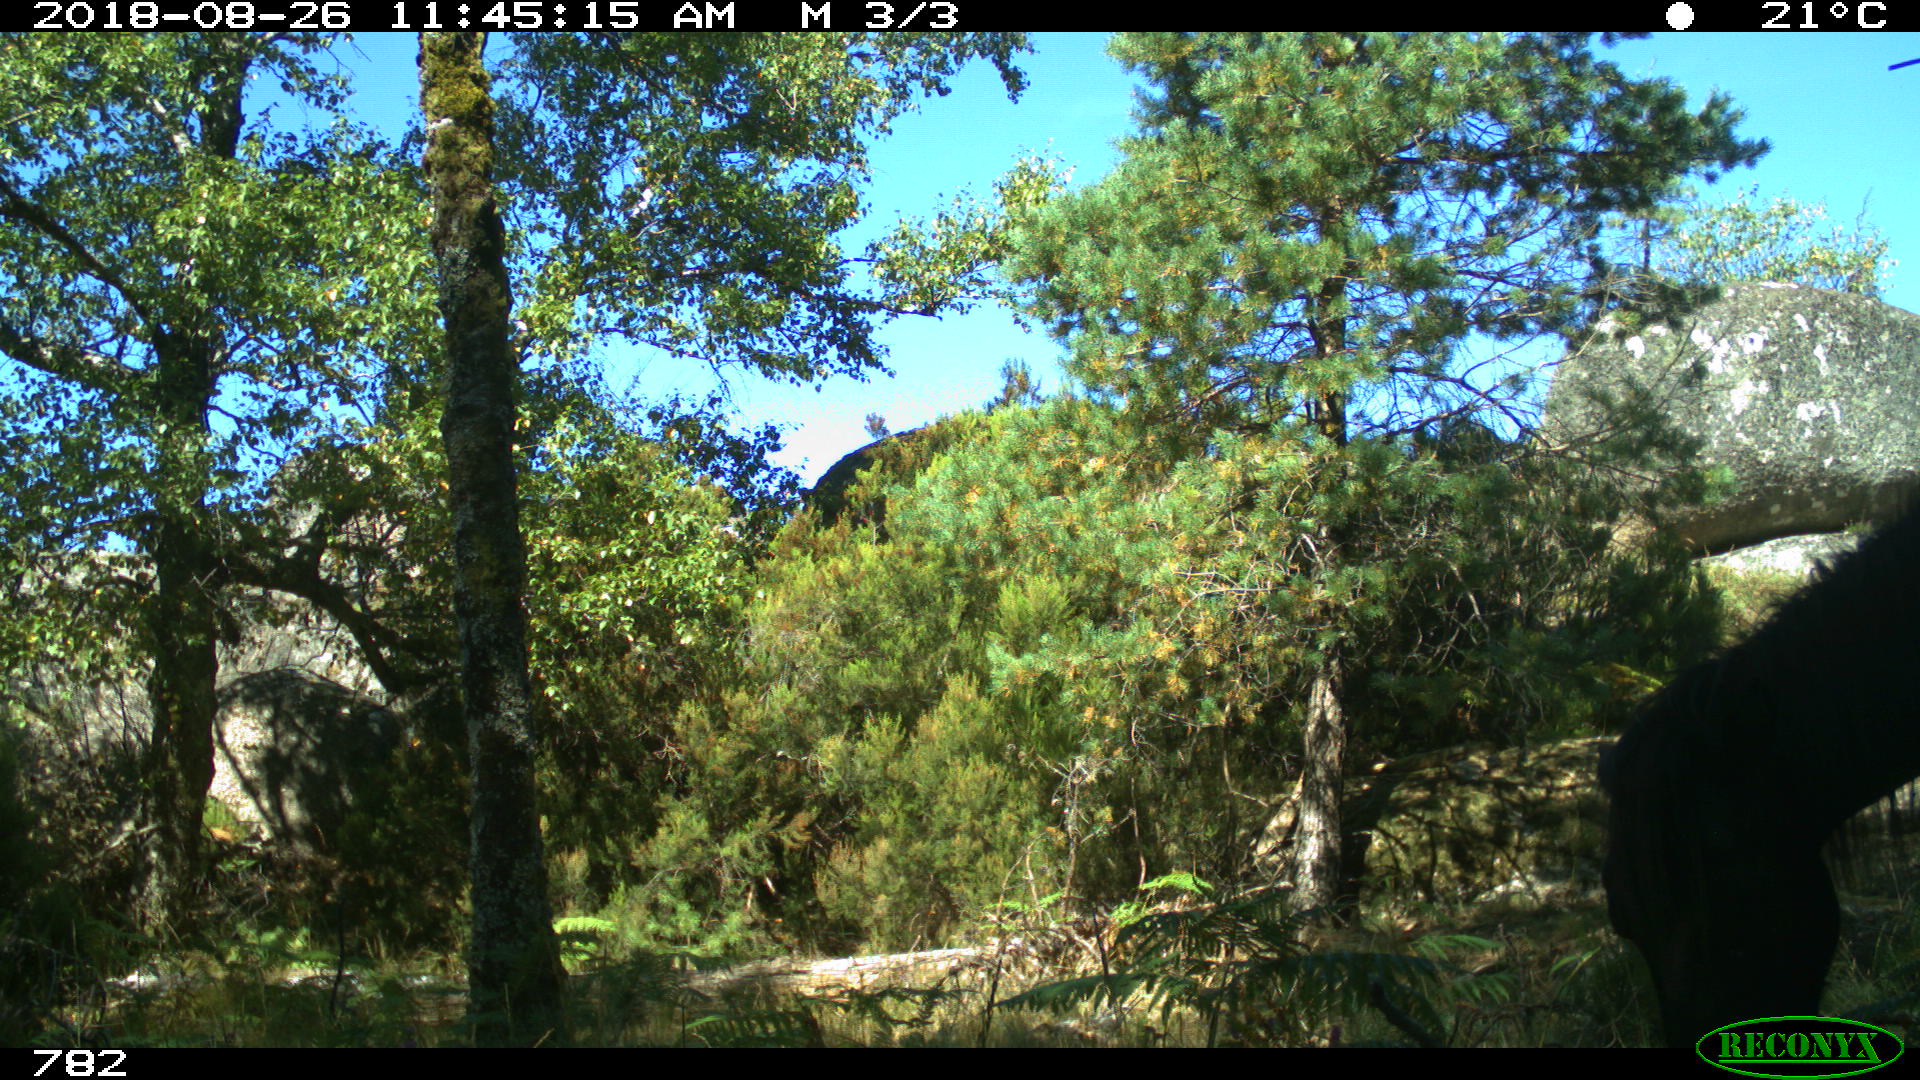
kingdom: Animalia
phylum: Chordata
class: Mammalia
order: Perissodactyla
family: Equidae
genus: Equus
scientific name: Equus caballus
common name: Horse
